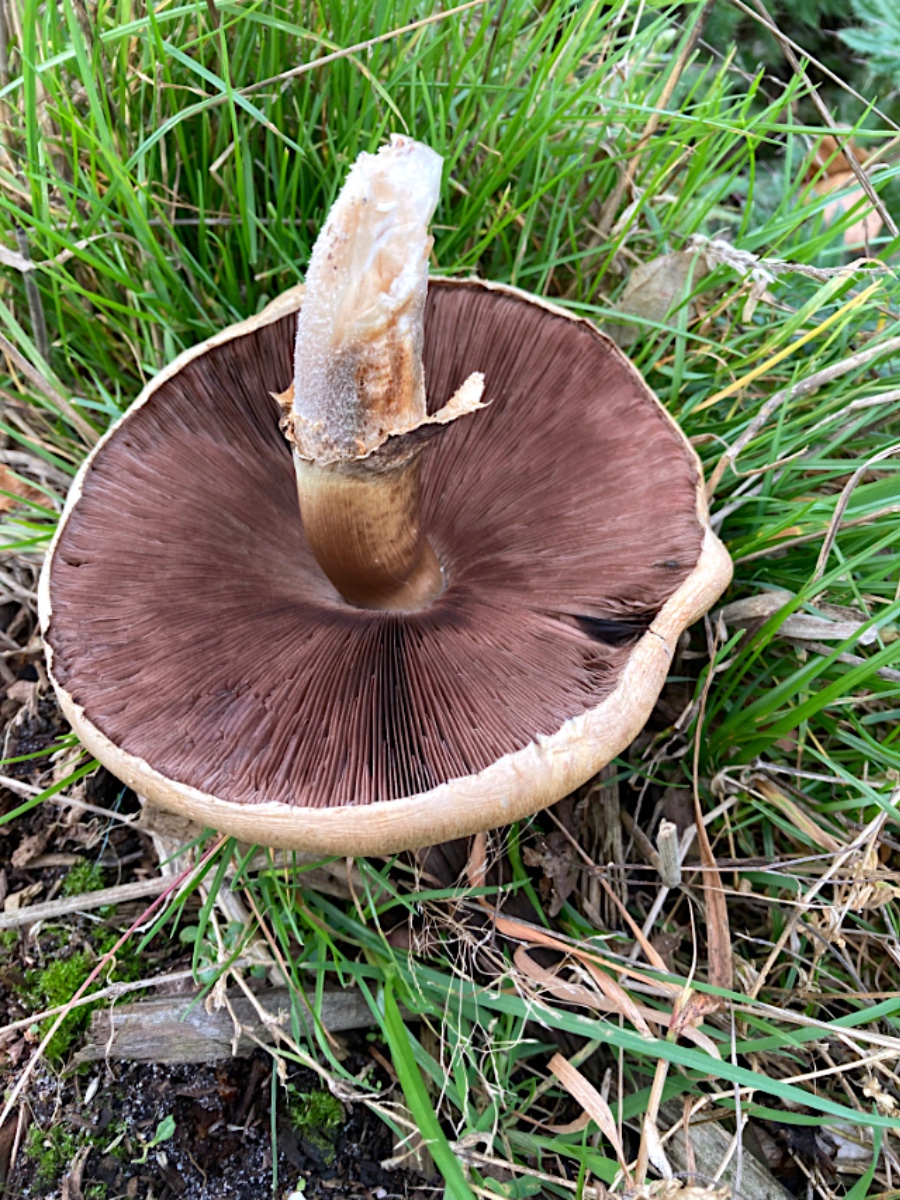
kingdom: Fungi
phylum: Basidiomycota
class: Agaricomycetes
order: Agaricales
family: Agaricaceae
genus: Agaricus
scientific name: Agaricus
